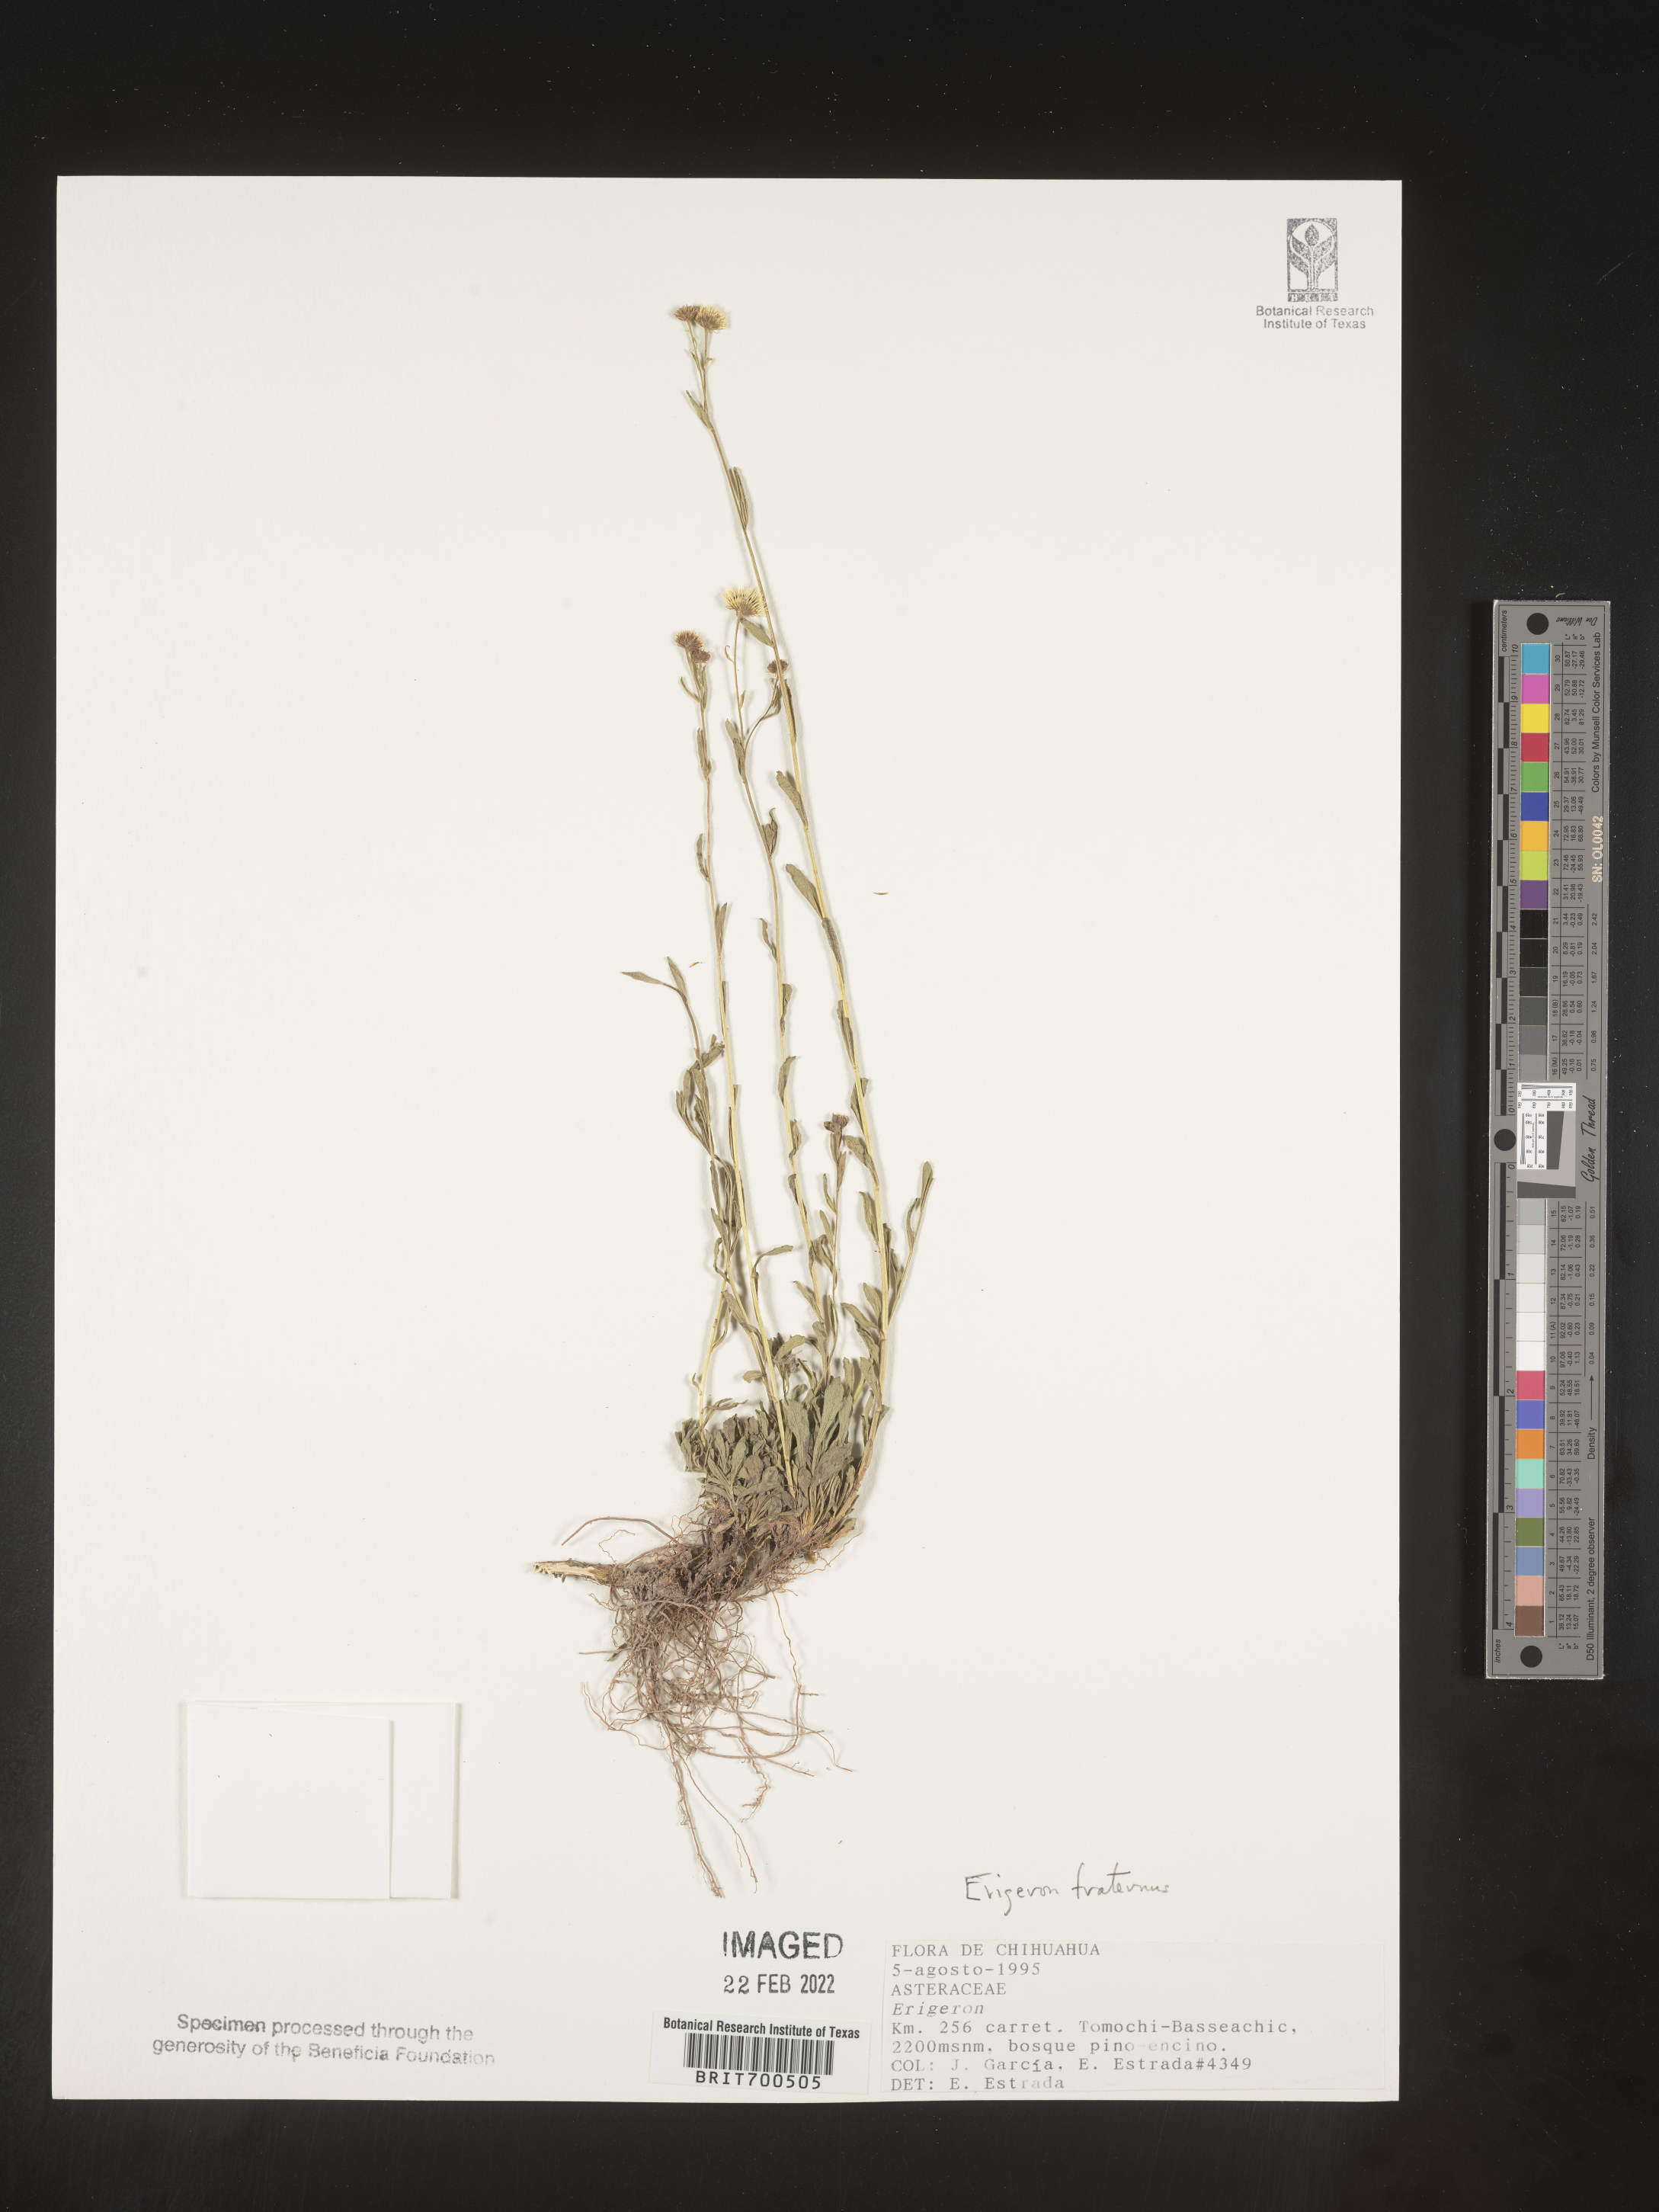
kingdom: Plantae
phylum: Tracheophyta
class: Magnoliopsida
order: Asterales
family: Asteraceae
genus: Erigeron
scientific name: Erigeron
